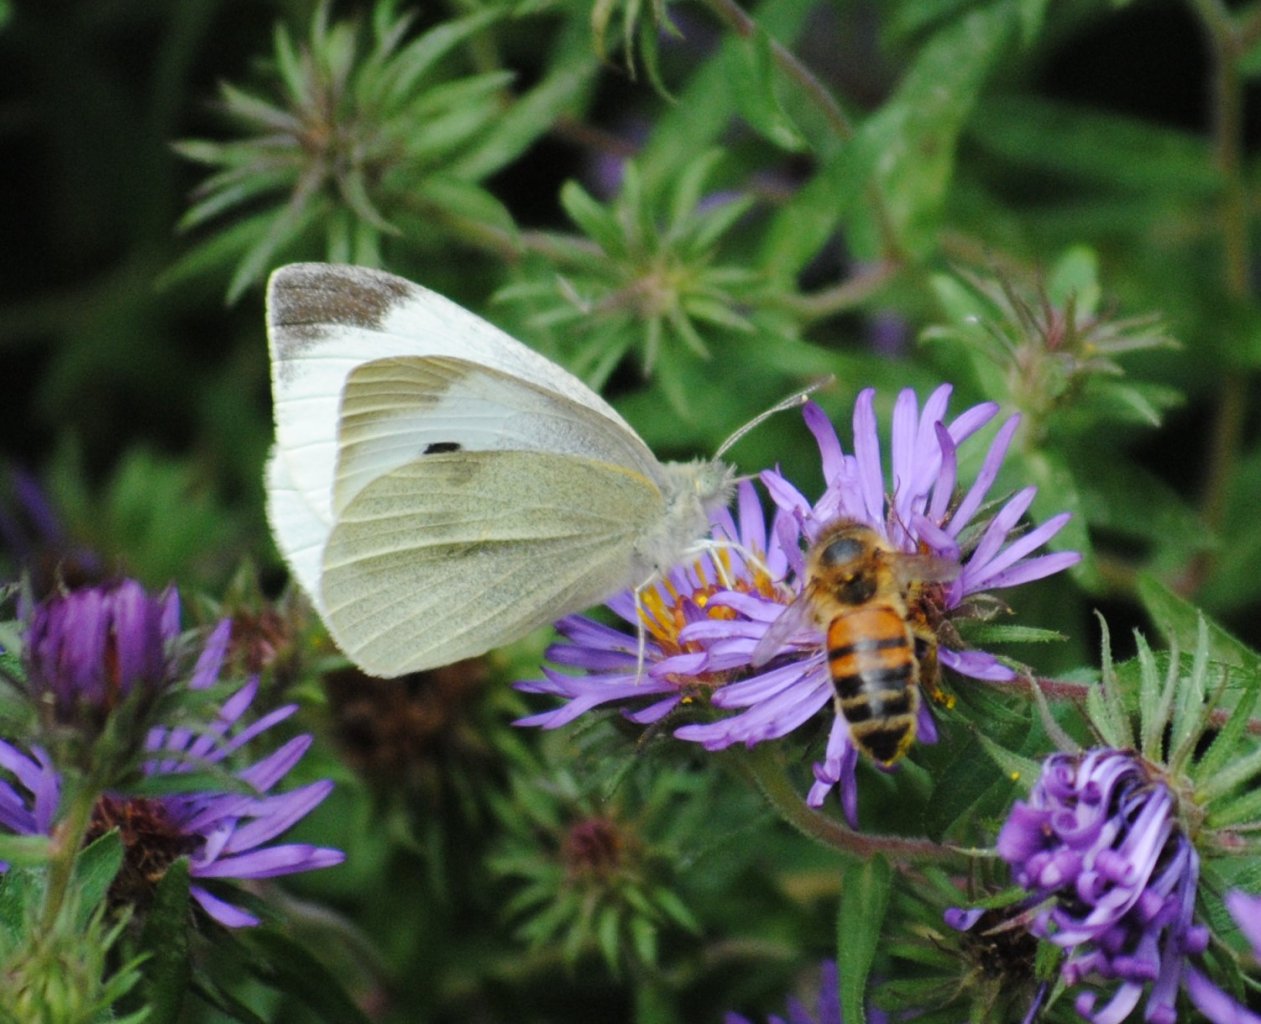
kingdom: Animalia
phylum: Arthropoda
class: Insecta
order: Lepidoptera
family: Pieridae
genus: Pieris
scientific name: Pieris rapae
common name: Cabbage White
